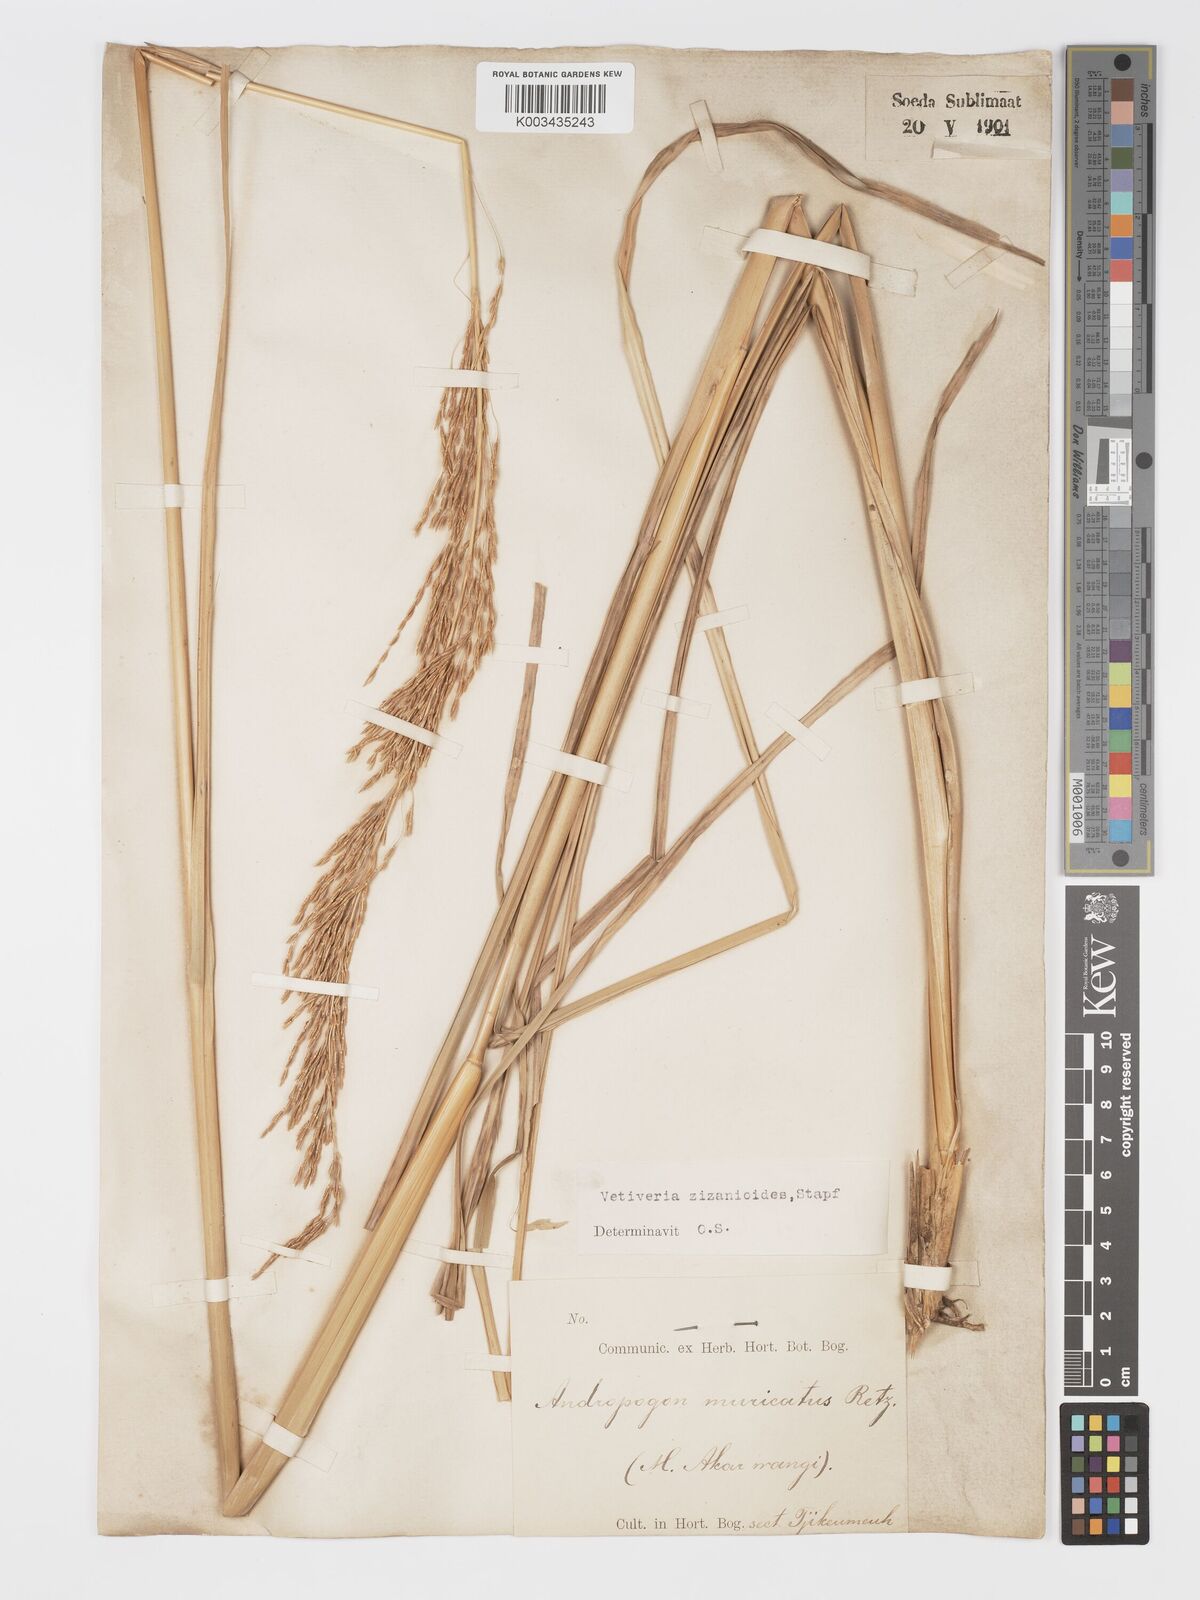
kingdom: Plantae
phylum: Tracheophyta
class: Liliopsida
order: Poales
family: Poaceae
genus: Chrysopogon
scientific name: Chrysopogon zizanioides
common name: False beardgrass
